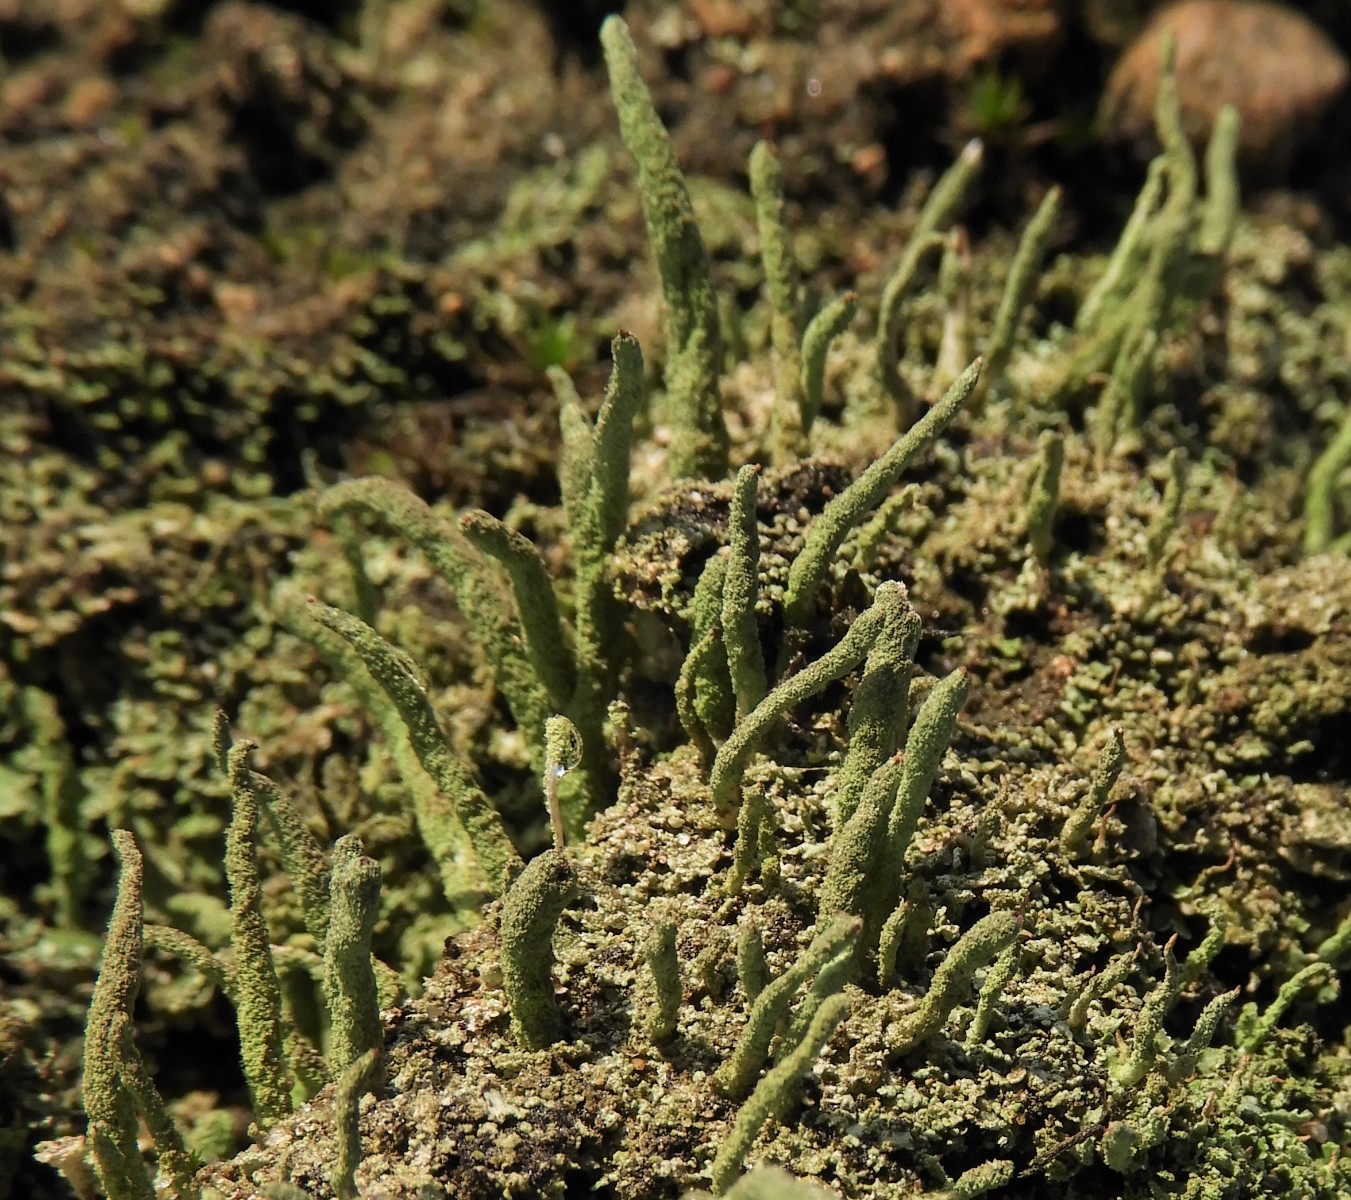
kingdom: Fungi
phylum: Ascomycota
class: Lecanoromycetes
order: Lecanorales
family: Cladoniaceae
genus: Cladonia
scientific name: Cladonia ochrochlora
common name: stød-bægerlav
